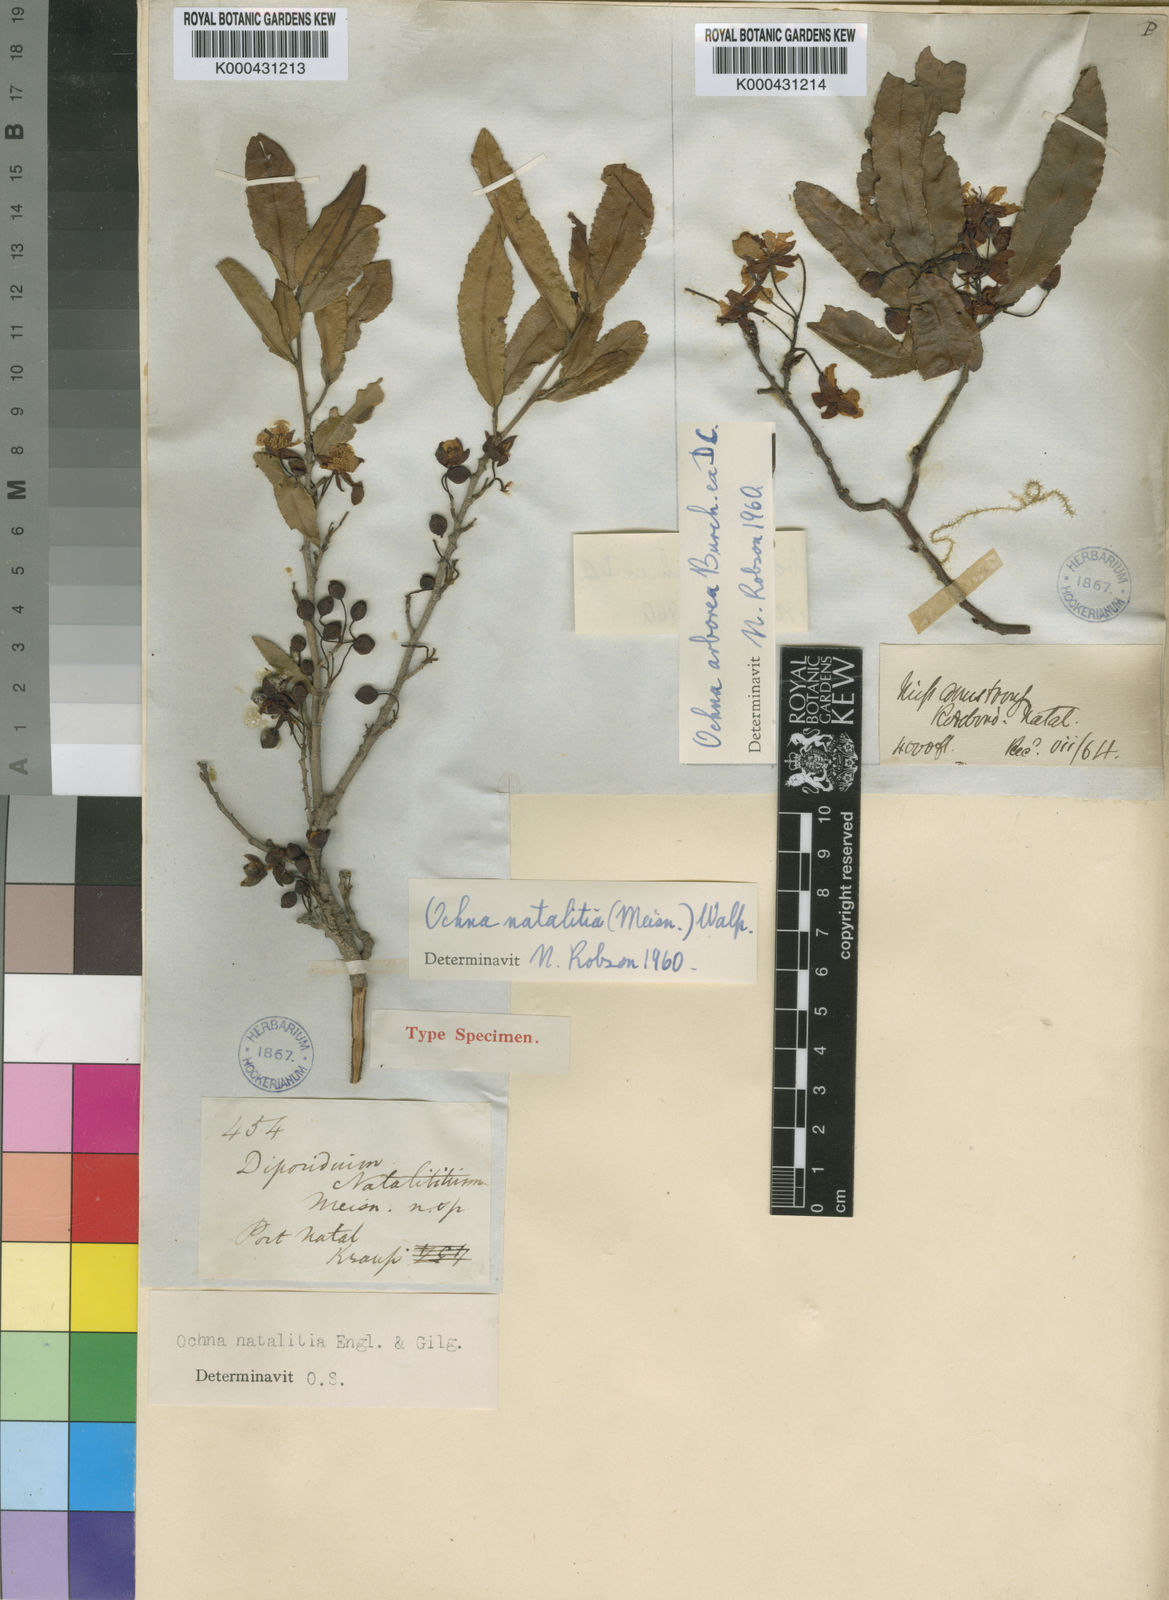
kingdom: Plantae
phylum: Tracheophyta
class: Magnoliopsida
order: Malpighiales
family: Ochnaceae
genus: Ochna
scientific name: Ochna natalitia
